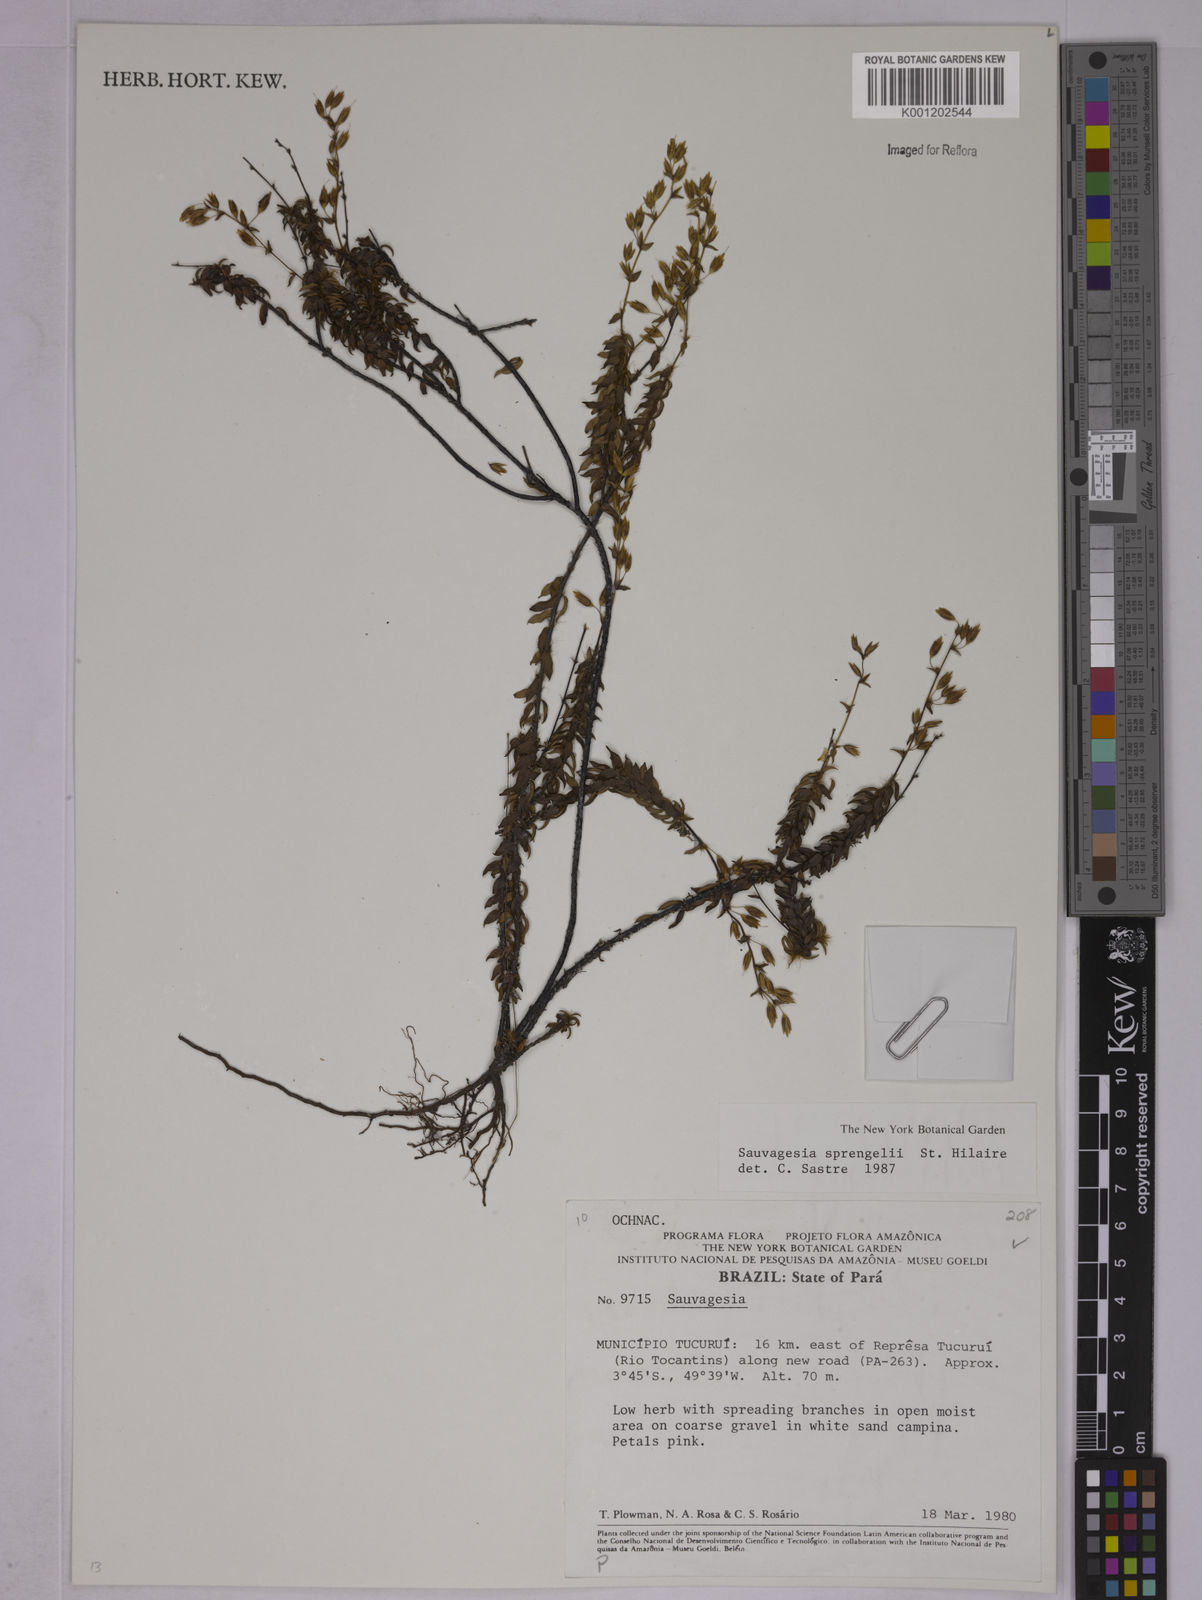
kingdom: Plantae
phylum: Tracheophyta
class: Magnoliopsida
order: Malpighiales
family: Ochnaceae
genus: Sauvagesia
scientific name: Sauvagesia sprengelii
